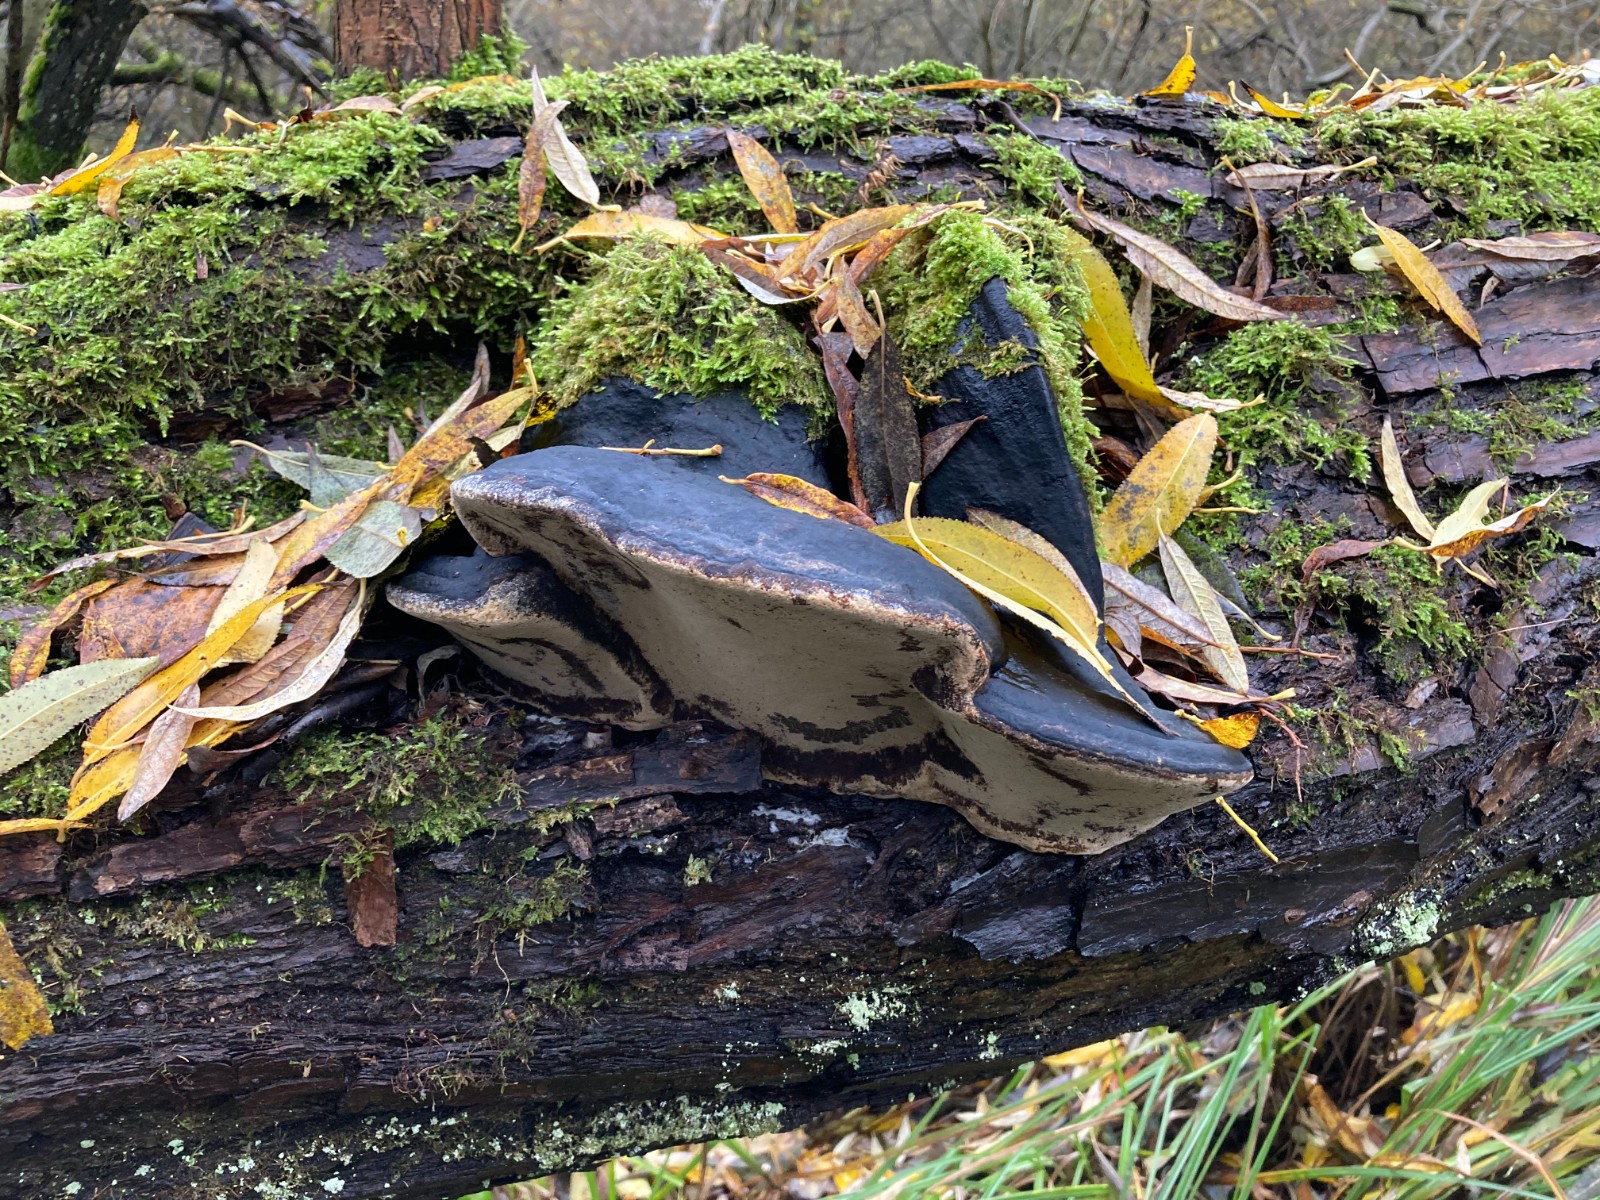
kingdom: Fungi
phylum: Basidiomycota
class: Agaricomycetes
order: Hymenochaetales
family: Hymenochaetaceae
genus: Phellinus
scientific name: Phellinus igniarius
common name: almindelig ildporesvamp
